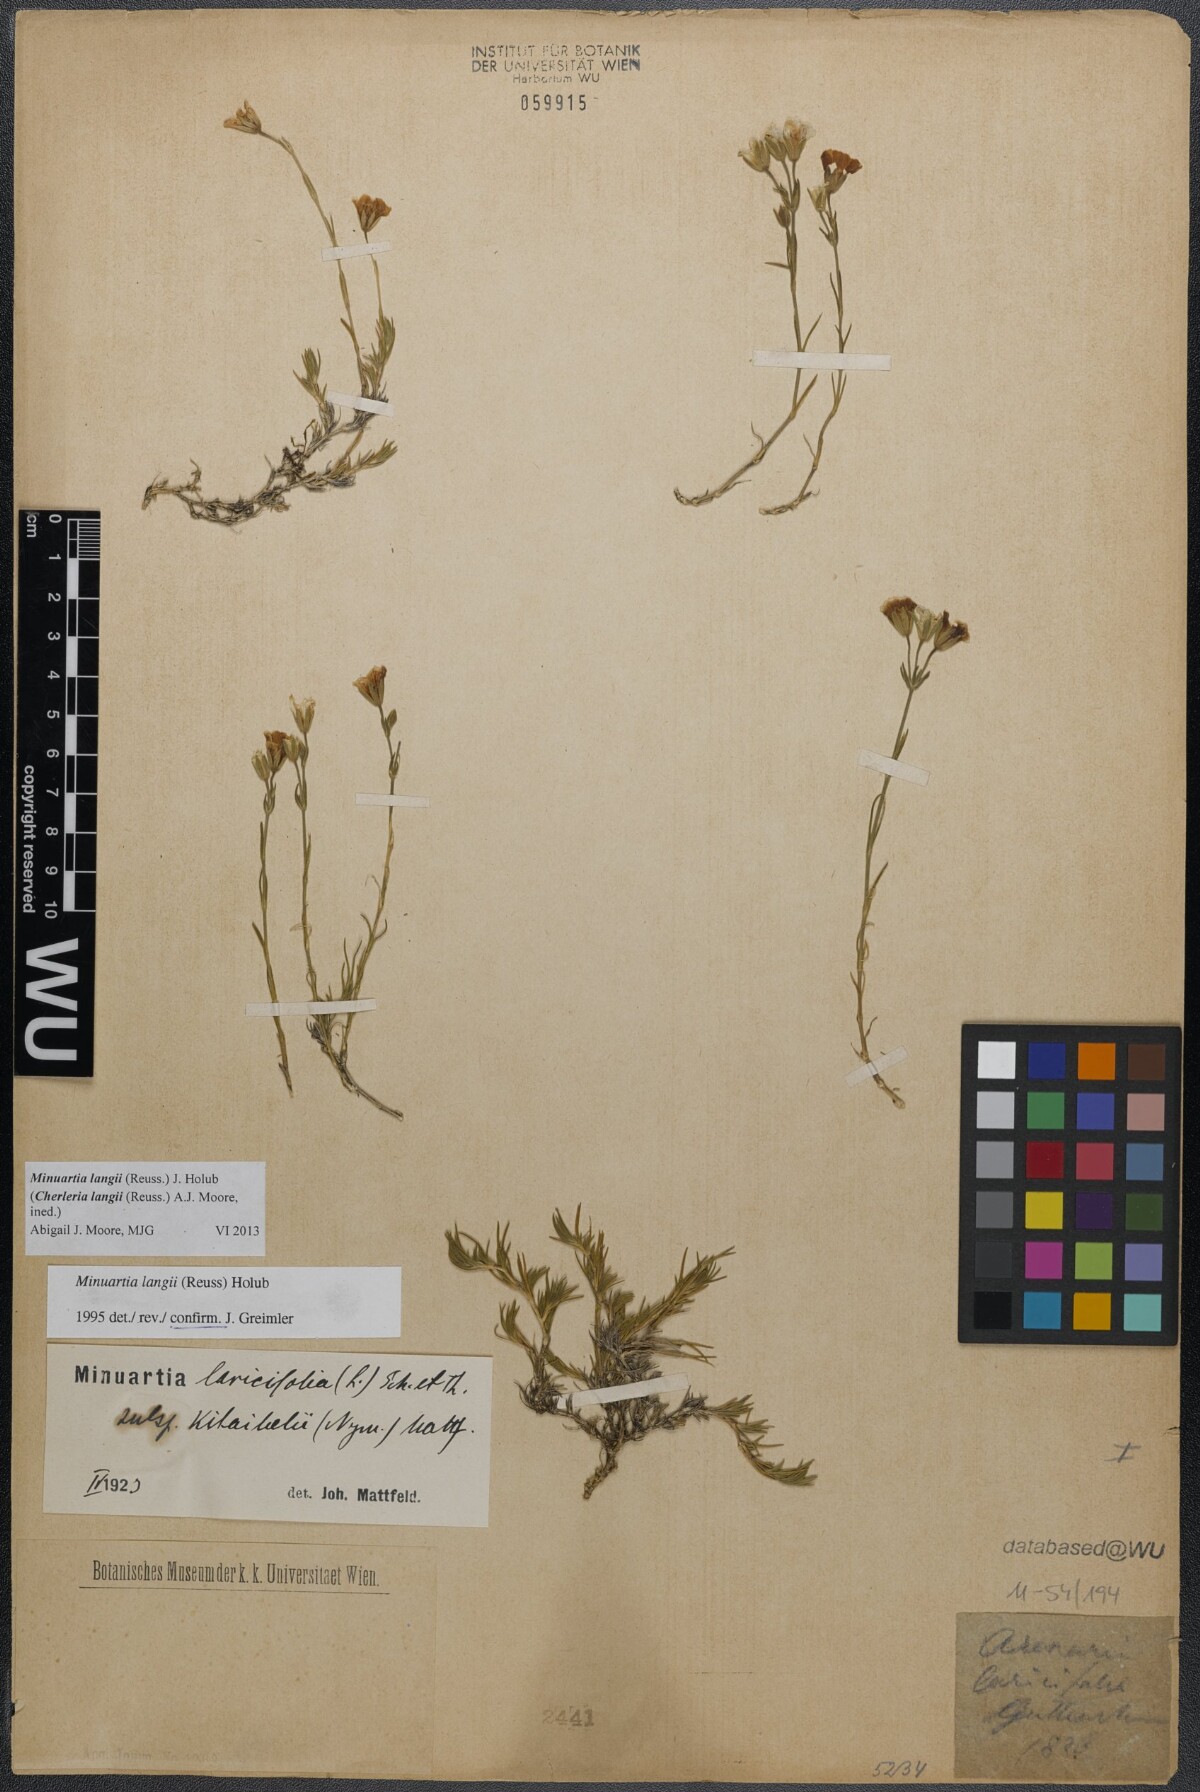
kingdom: Plantae
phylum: Tracheophyta
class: Magnoliopsida
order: Caryophyllales
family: Caryophyllaceae
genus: Cherleria
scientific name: Cherleria langii
